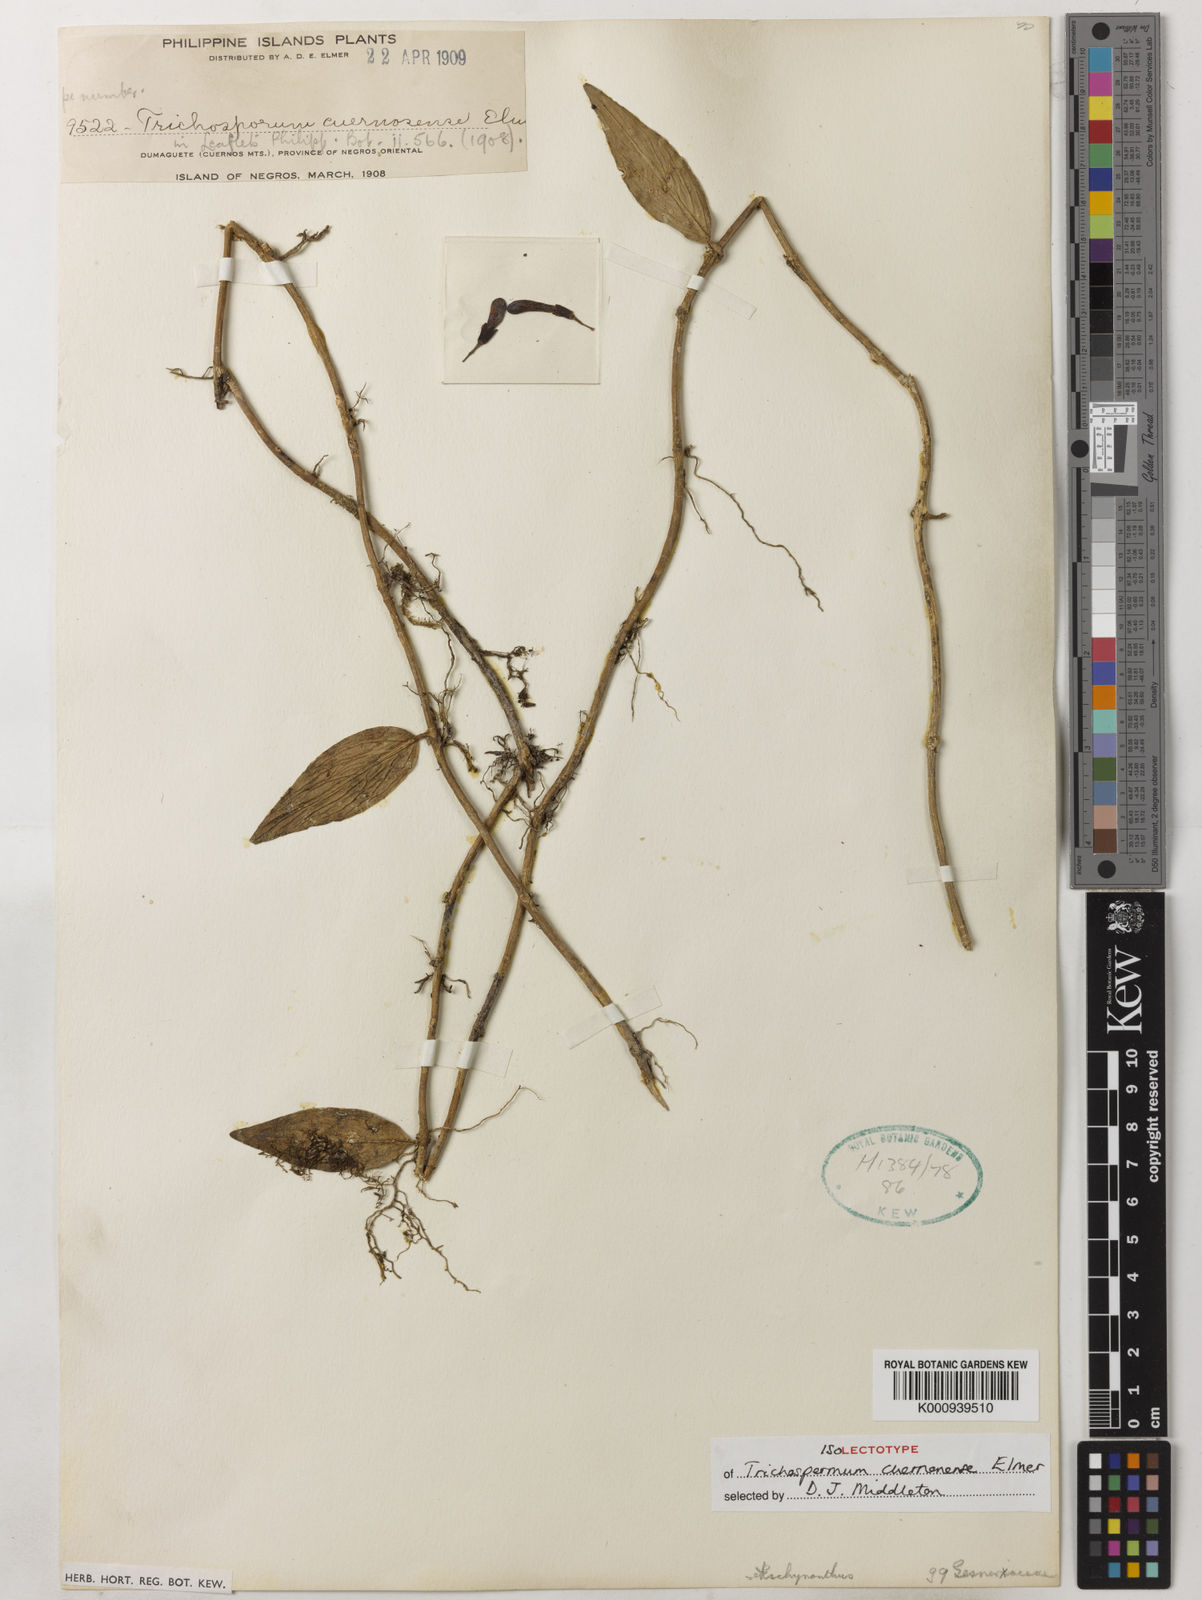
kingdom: Plantae
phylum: Tracheophyta
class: Magnoliopsida
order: Lamiales
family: Gesneriaceae
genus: Aeschynanthus
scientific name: Aeschynanthus cuernosensis
